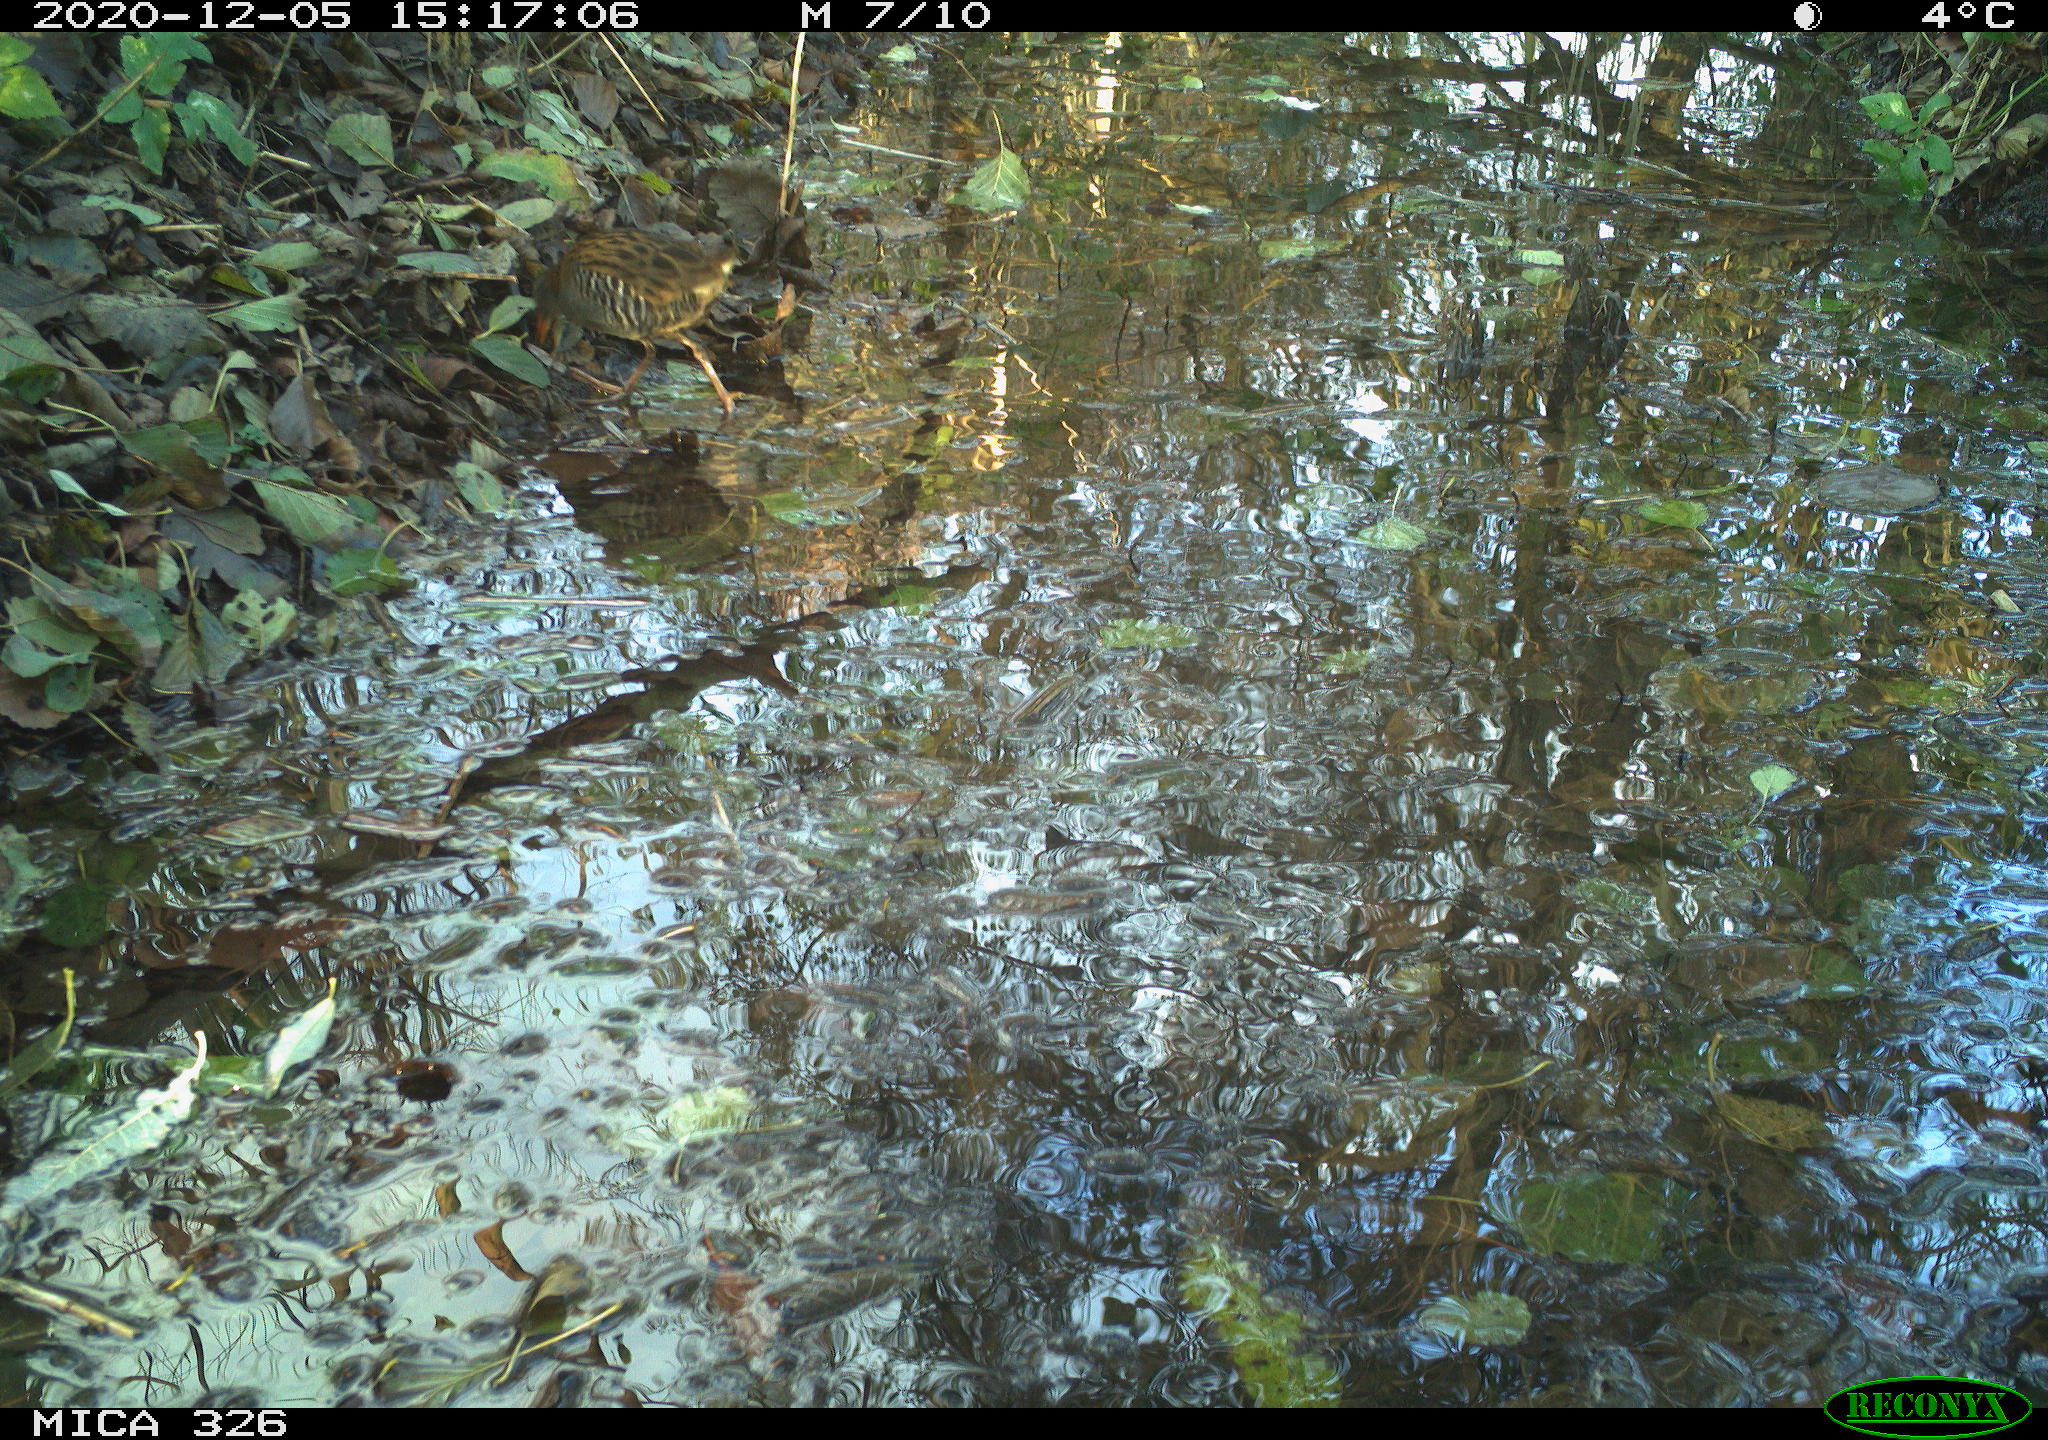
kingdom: Animalia
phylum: Chordata
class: Aves
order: Gruiformes
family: Rallidae
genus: Rallus
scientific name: Rallus aquaticus
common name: Water rail
